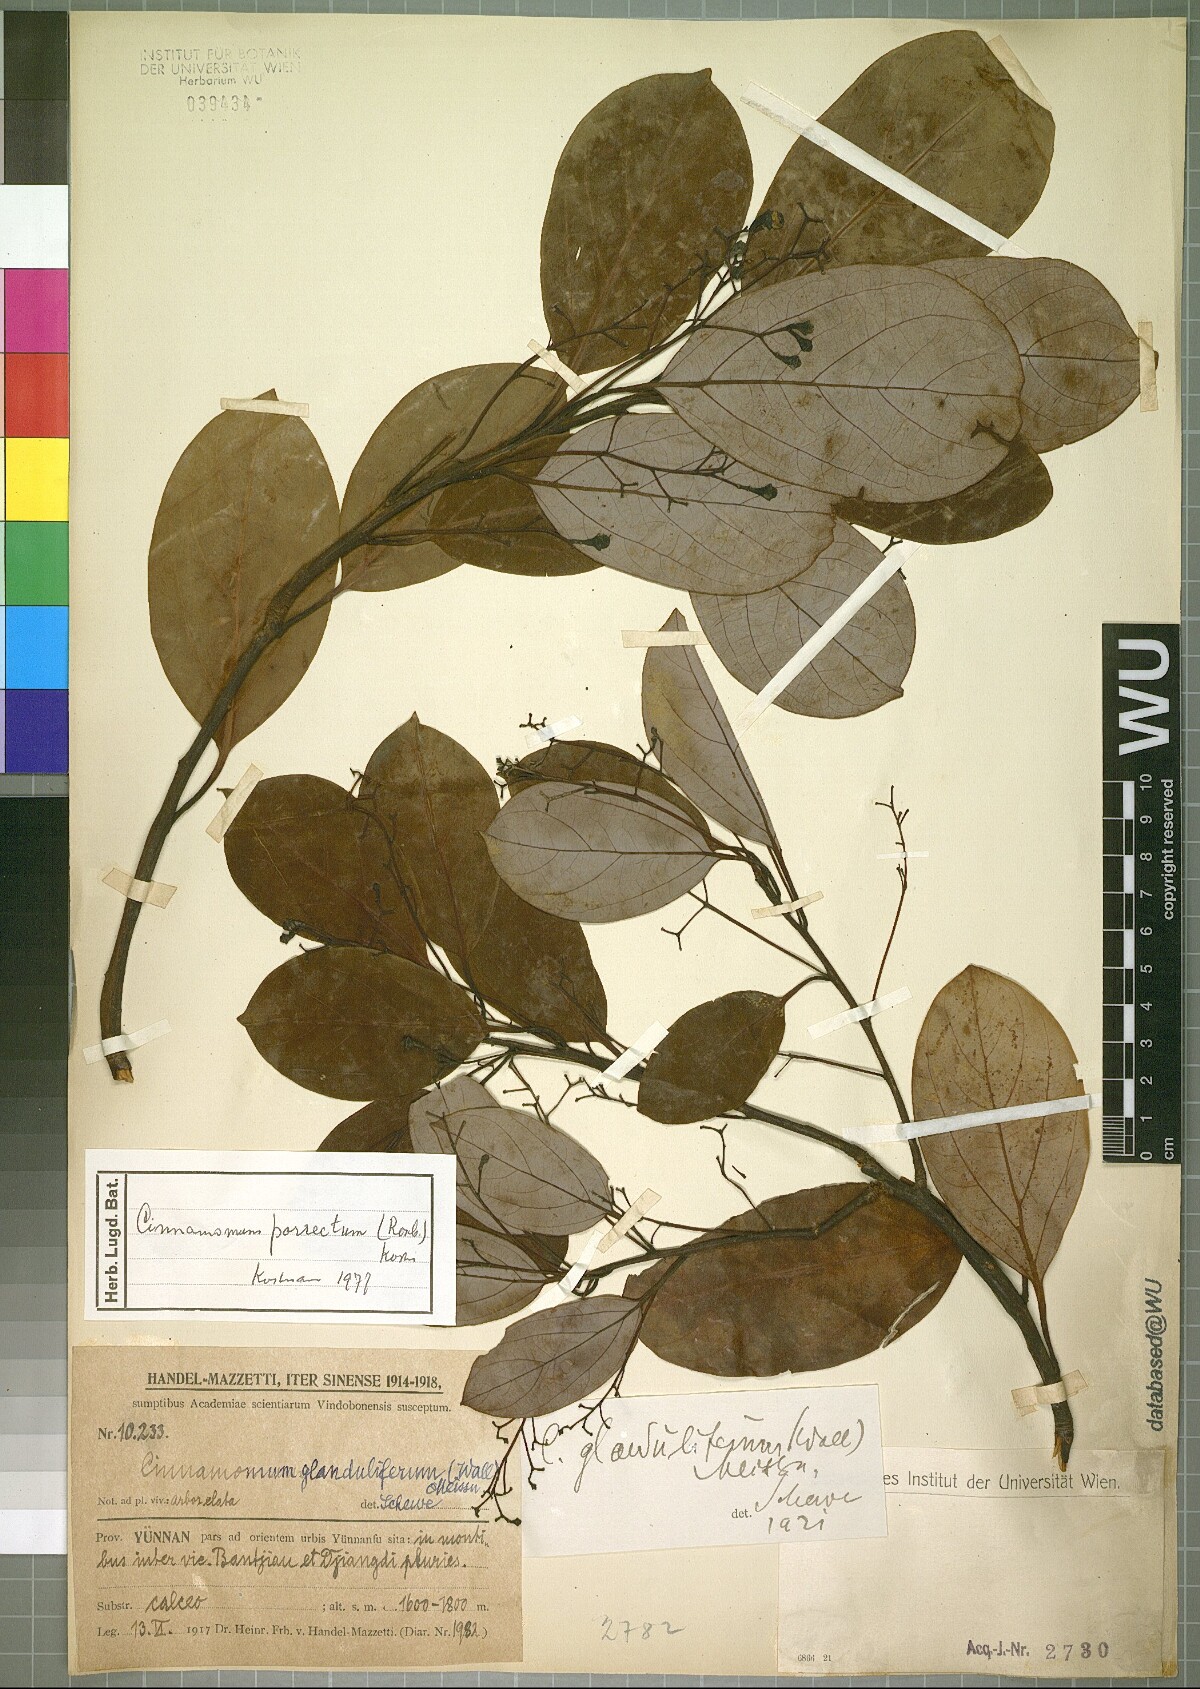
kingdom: Plantae
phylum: Tracheophyta
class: Magnoliopsida
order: Laurales
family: Lauraceae
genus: Cinnamomum
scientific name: Cinnamomum parthenoxylon
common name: Martaban camphor wood
